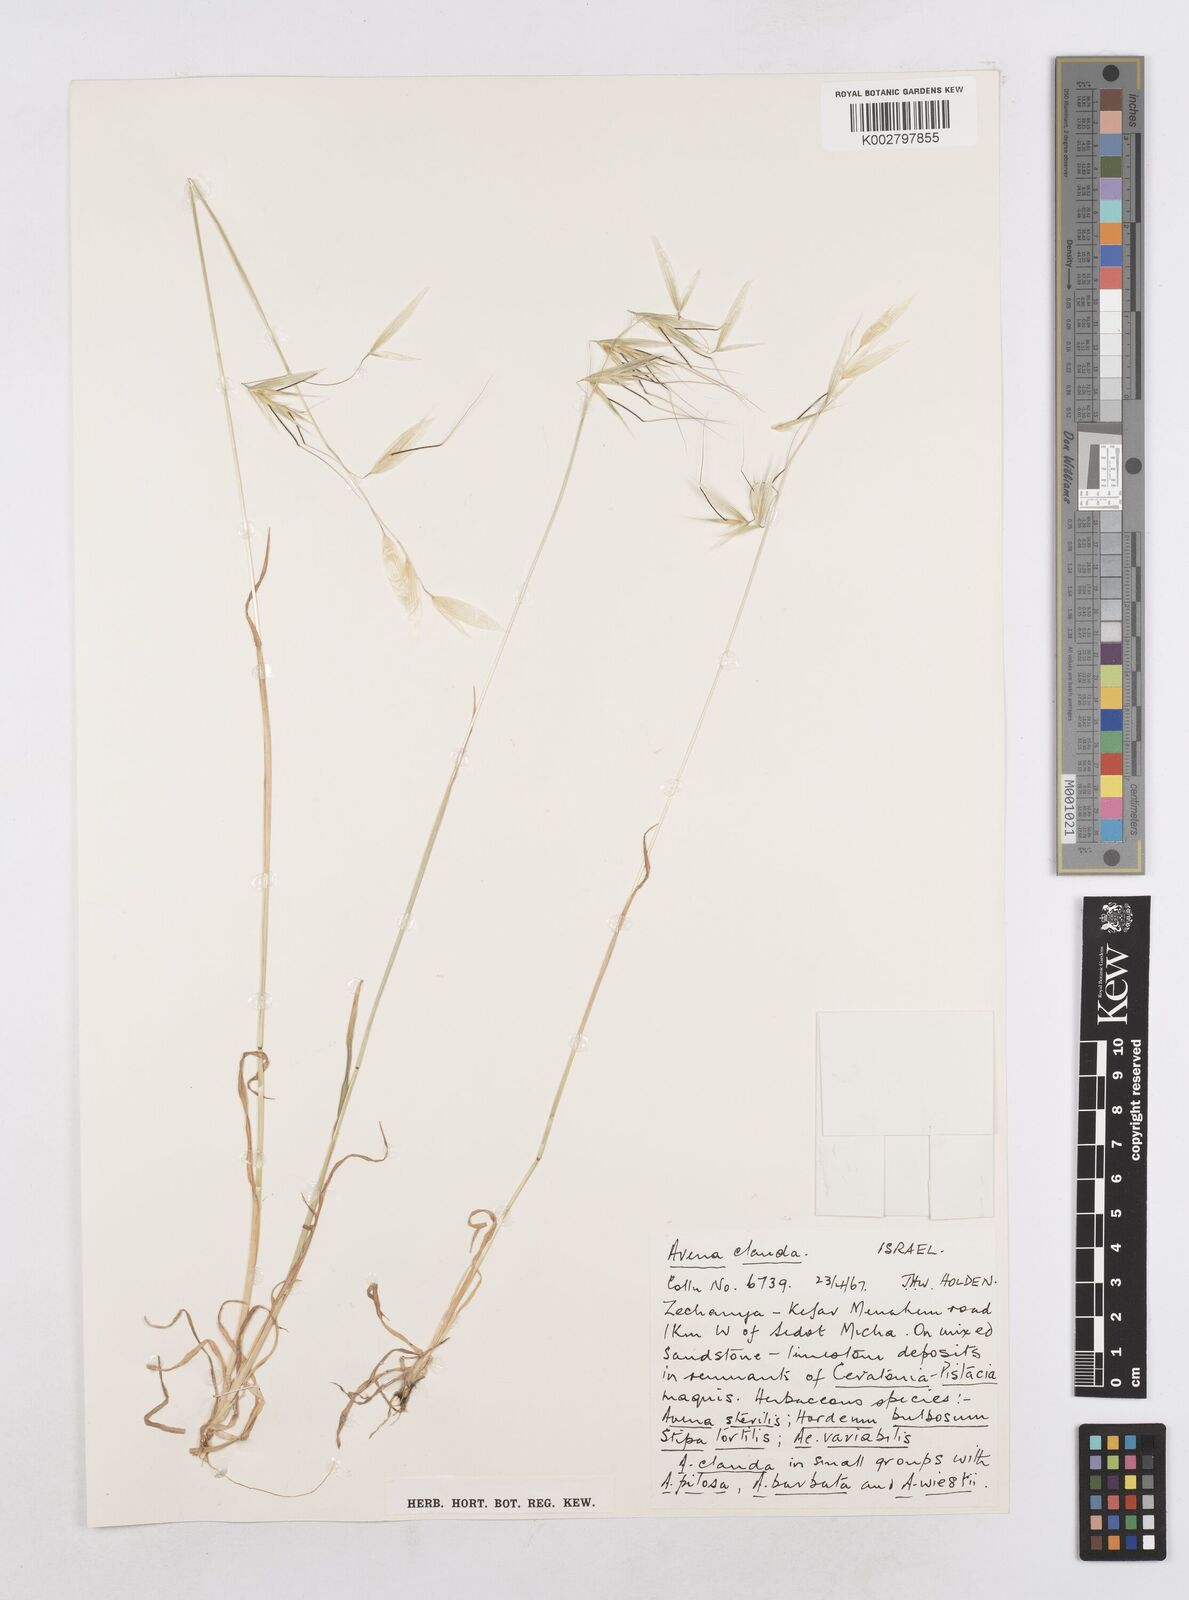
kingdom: Plantae
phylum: Tracheophyta
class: Liliopsida
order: Poales
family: Poaceae
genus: Avena
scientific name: Avena clauda
